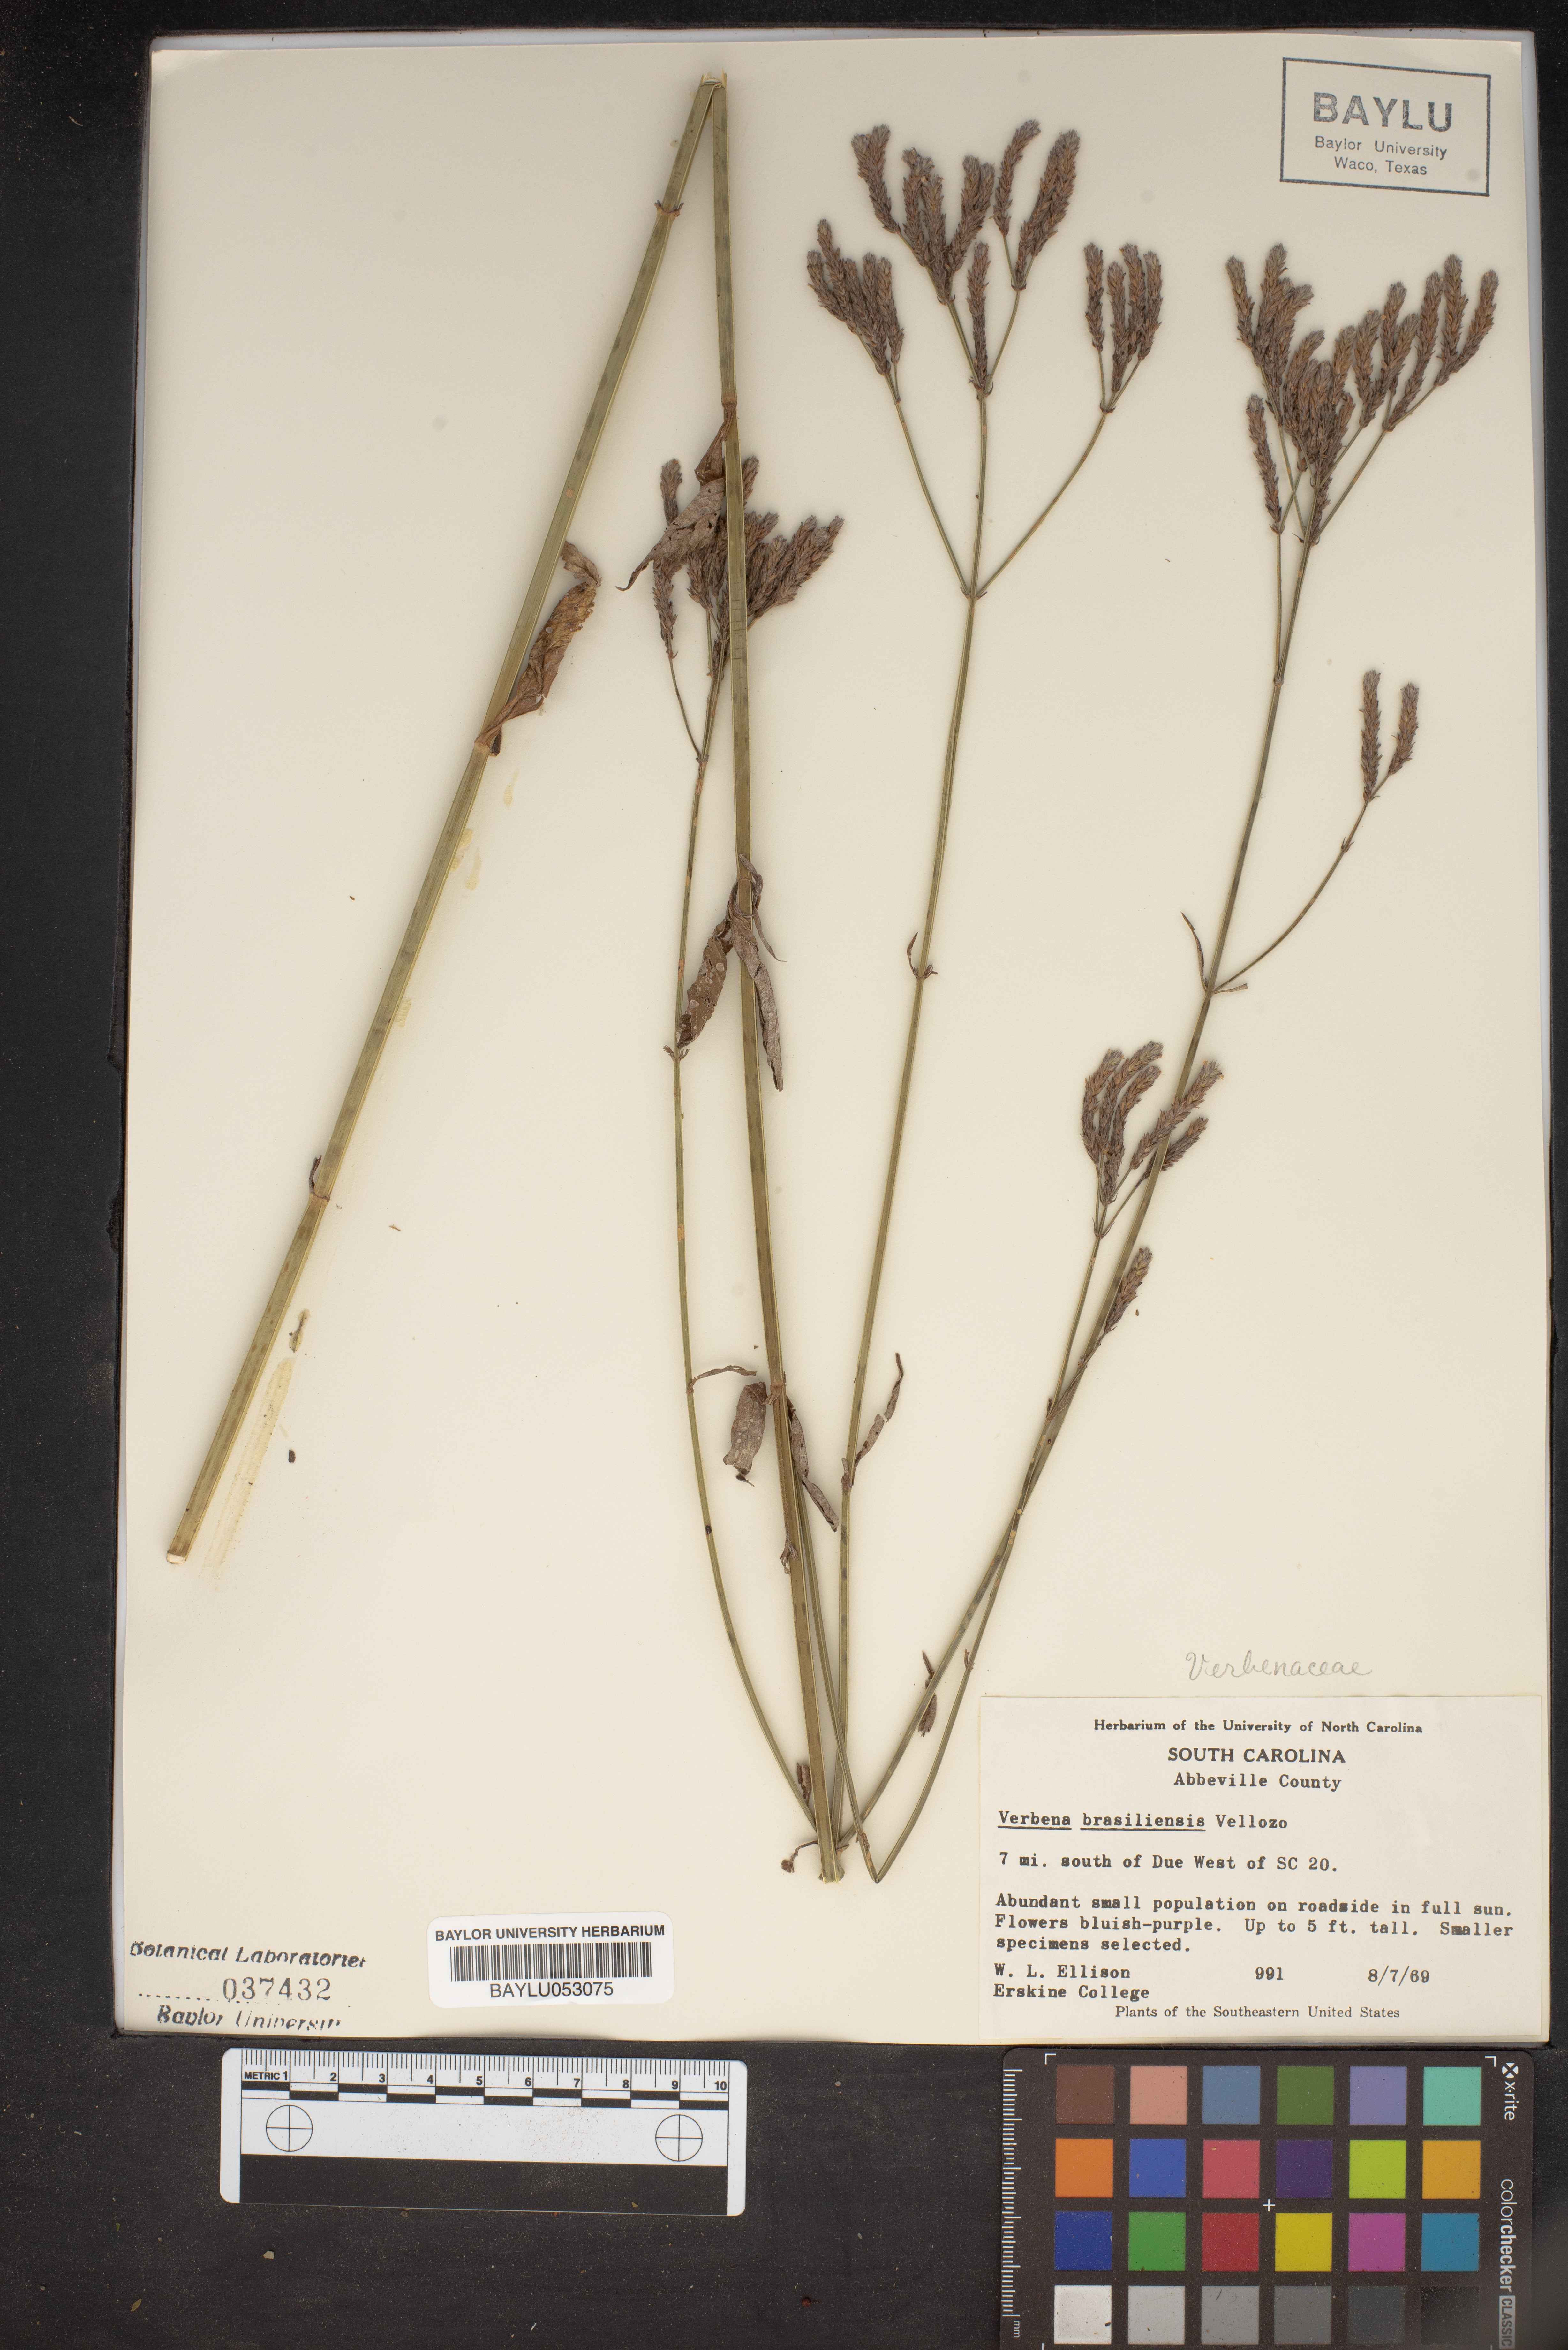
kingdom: Plantae
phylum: Tracheophyta
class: Magnoliopsida
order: Lamiales
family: Verbenaceae
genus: Verbena
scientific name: Verbena brasiliensis
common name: Brazilian vervain
